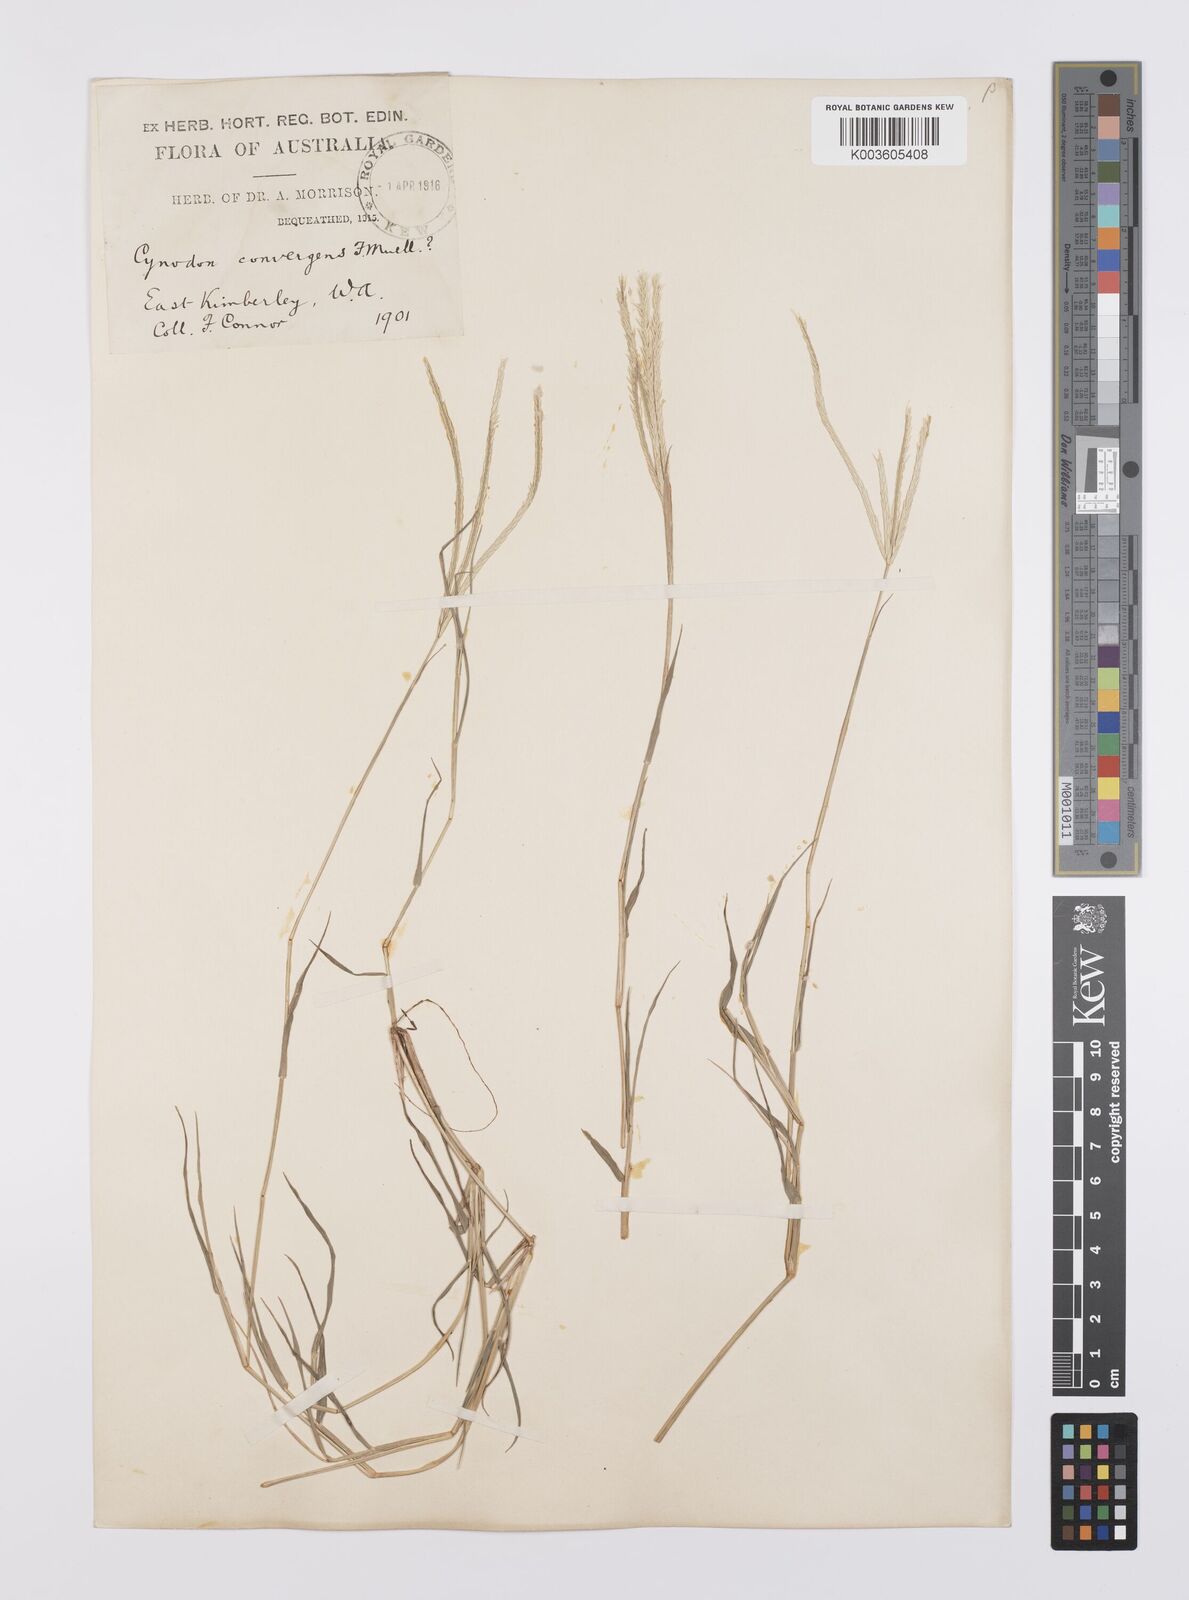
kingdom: Plantae
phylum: Tracheophyta
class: Liliopsida
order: Poales
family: Poaceae
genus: Cynodon
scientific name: Cynodon
